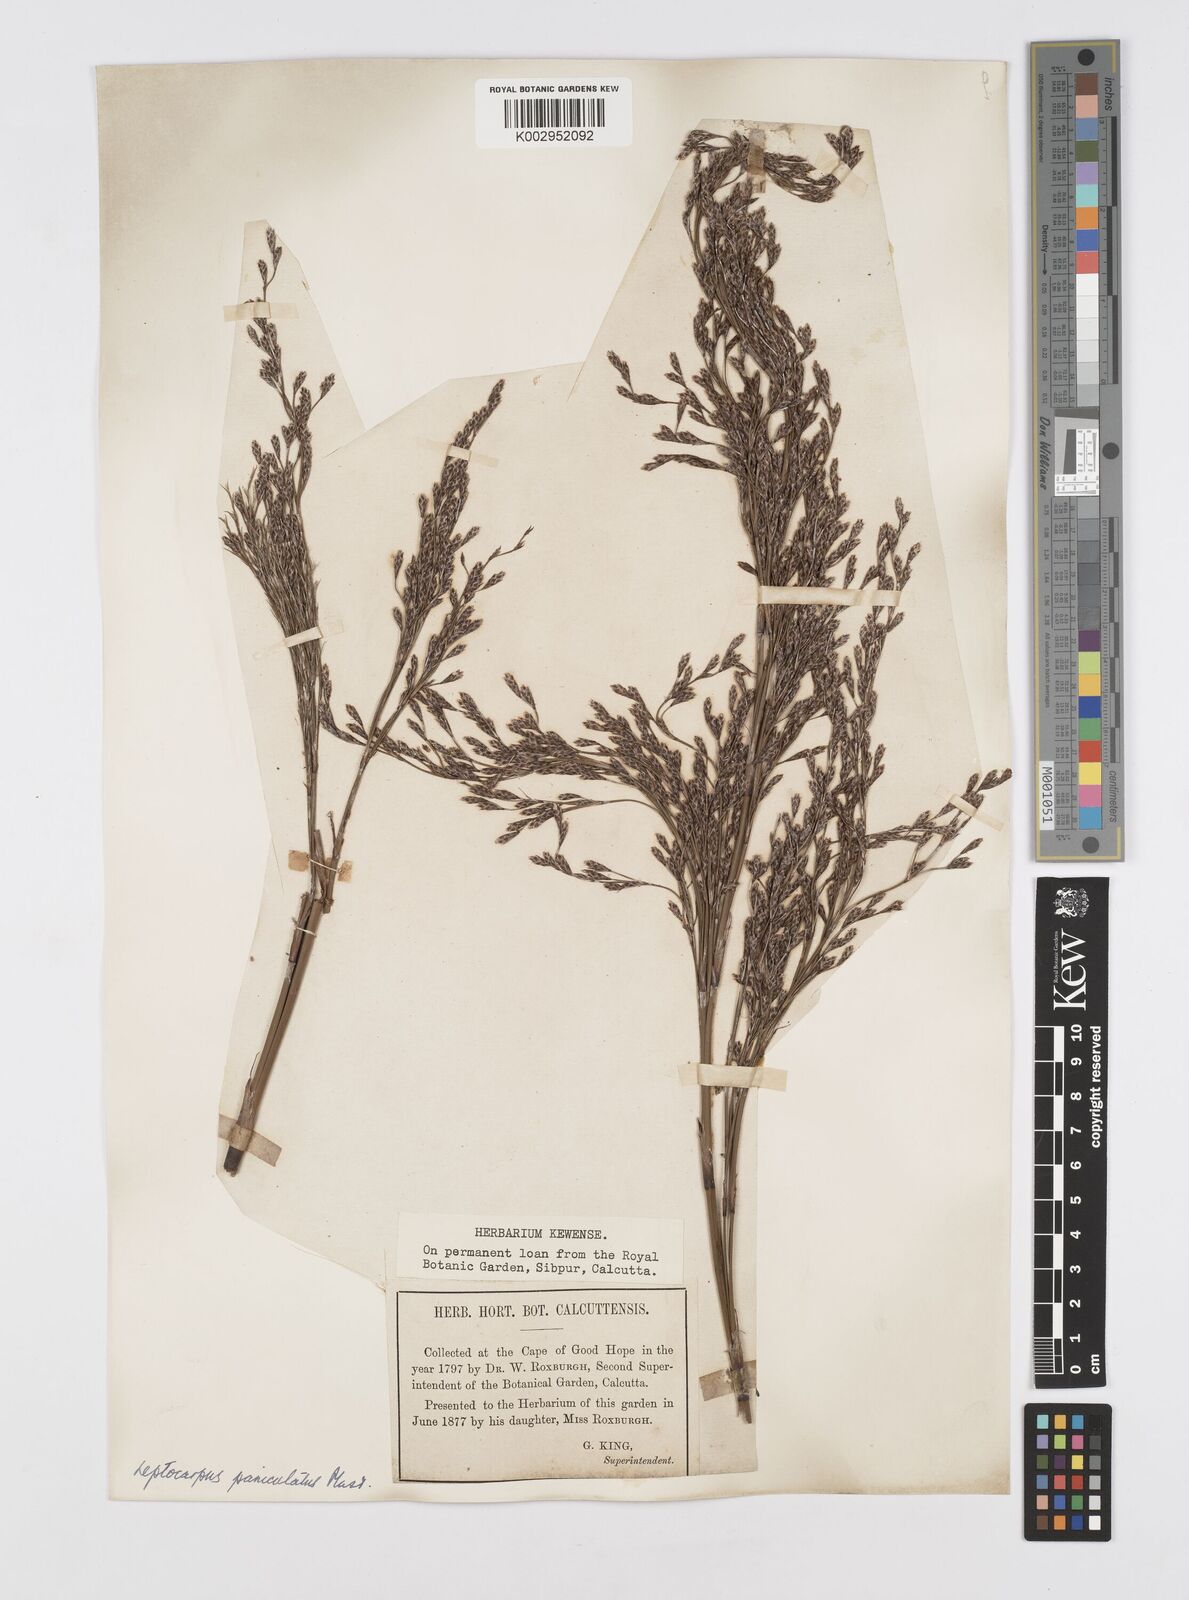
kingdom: Plantae
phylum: Tracheophyta
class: Liliopsida
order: Poales
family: Restionaceae
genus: Restio
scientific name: Restio paniculatus
